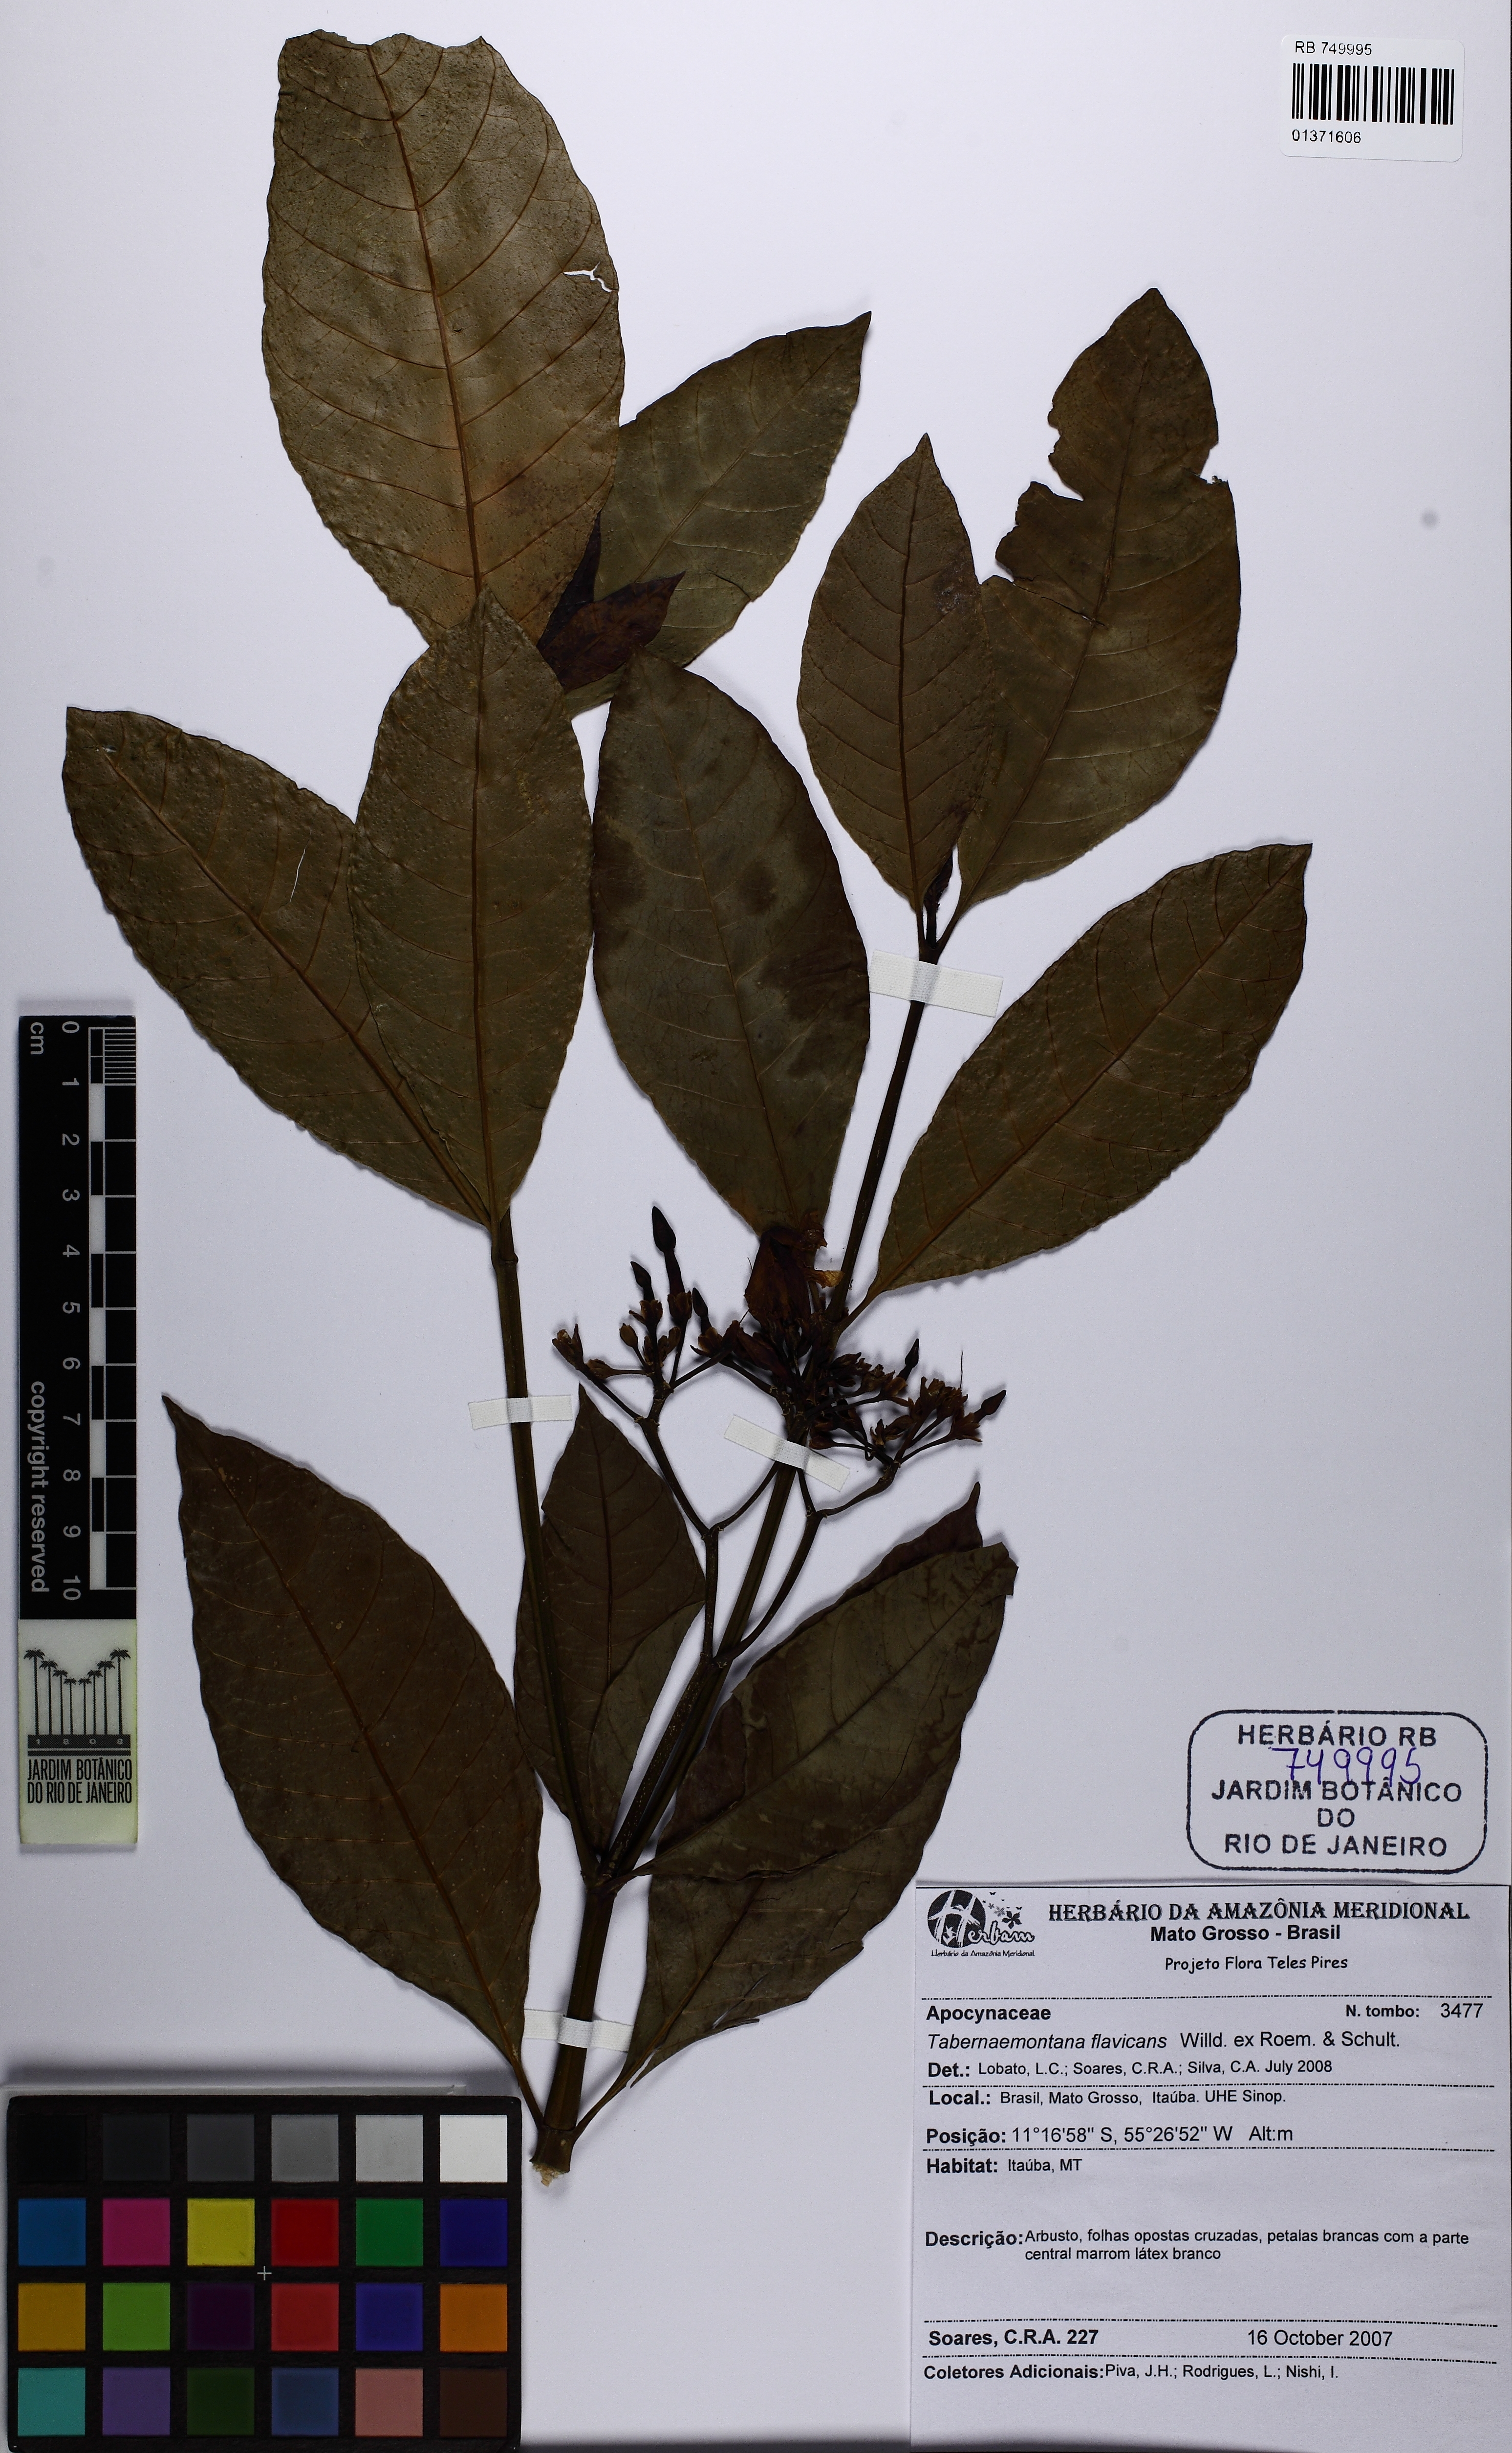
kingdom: Plantae
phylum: Tracheophyta
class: Magnoliopsida
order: Gentianales
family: Apocynaceae
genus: Tabernaemontana
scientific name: Tabernaemontana flavicans
